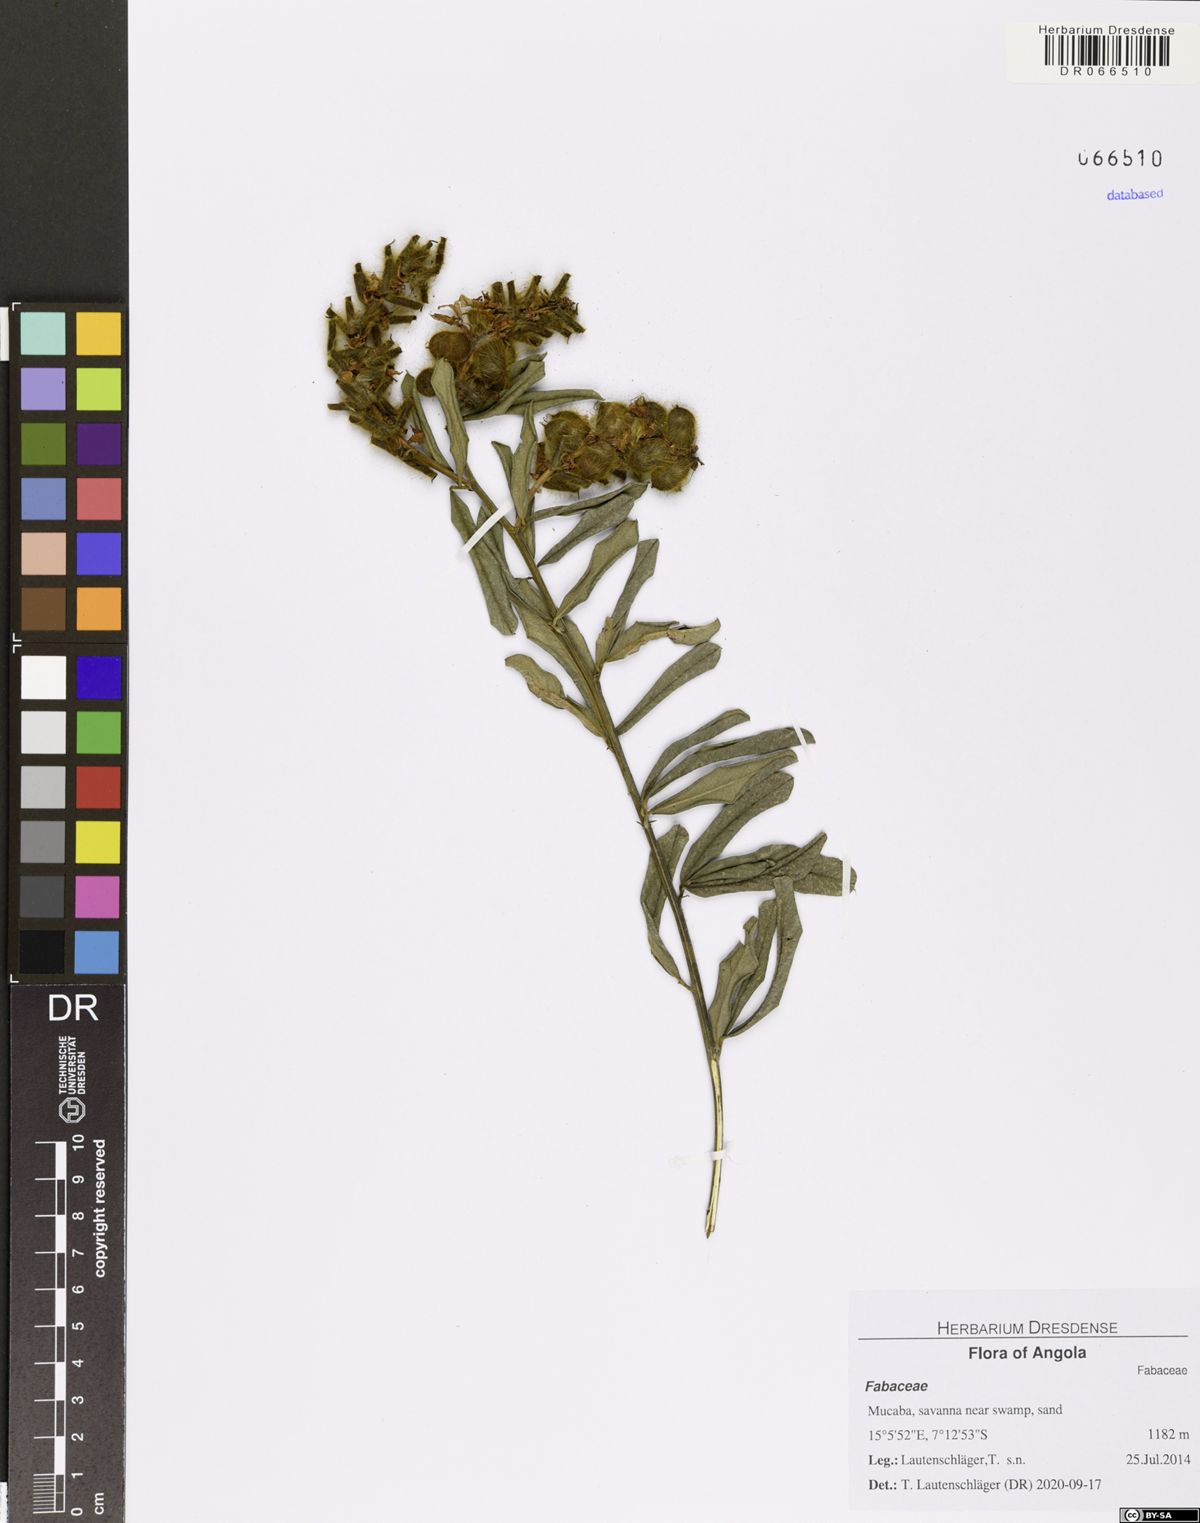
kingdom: Plantae
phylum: Tracheophyta
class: Magnoliopsida
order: Fabales
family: Fabaceae
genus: Eriosema
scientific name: Eriosema psoraleoides
